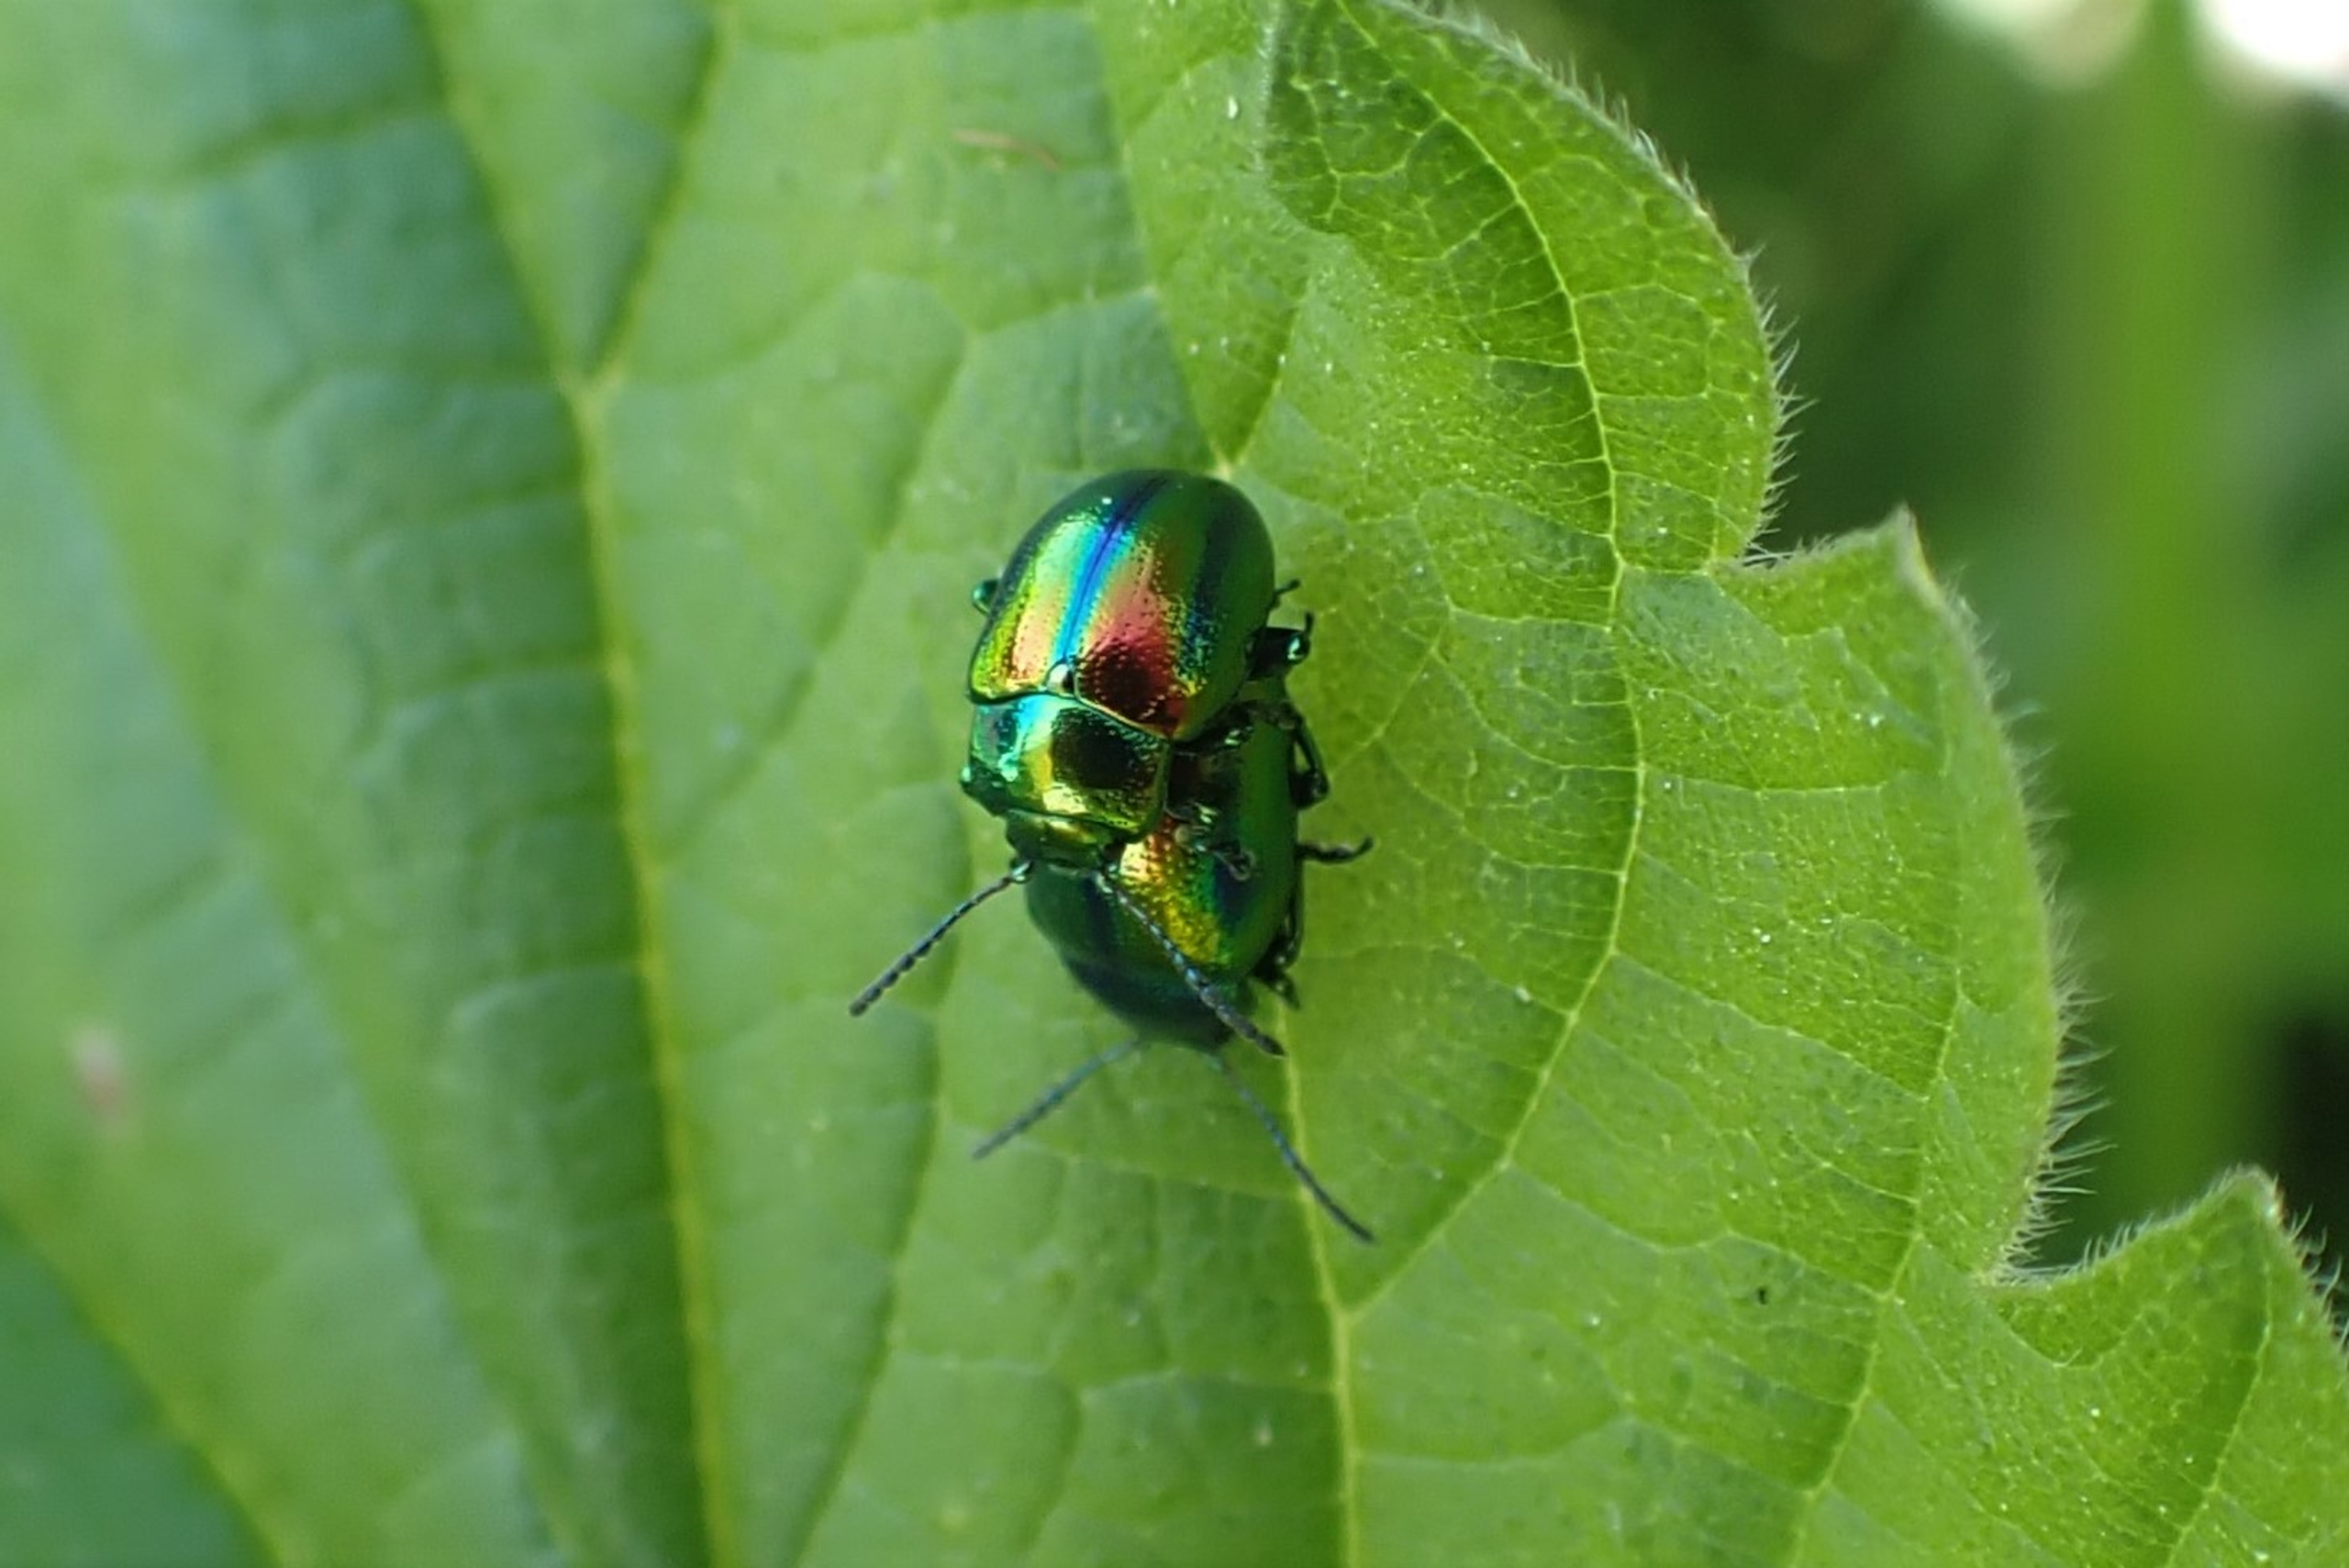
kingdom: Animalia
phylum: Arthropoda
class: Insecta
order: Coleoptera
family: Chrysomelidae
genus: Chrysolina
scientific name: Chrysolina fastuosa
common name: Tvetandbladbille
